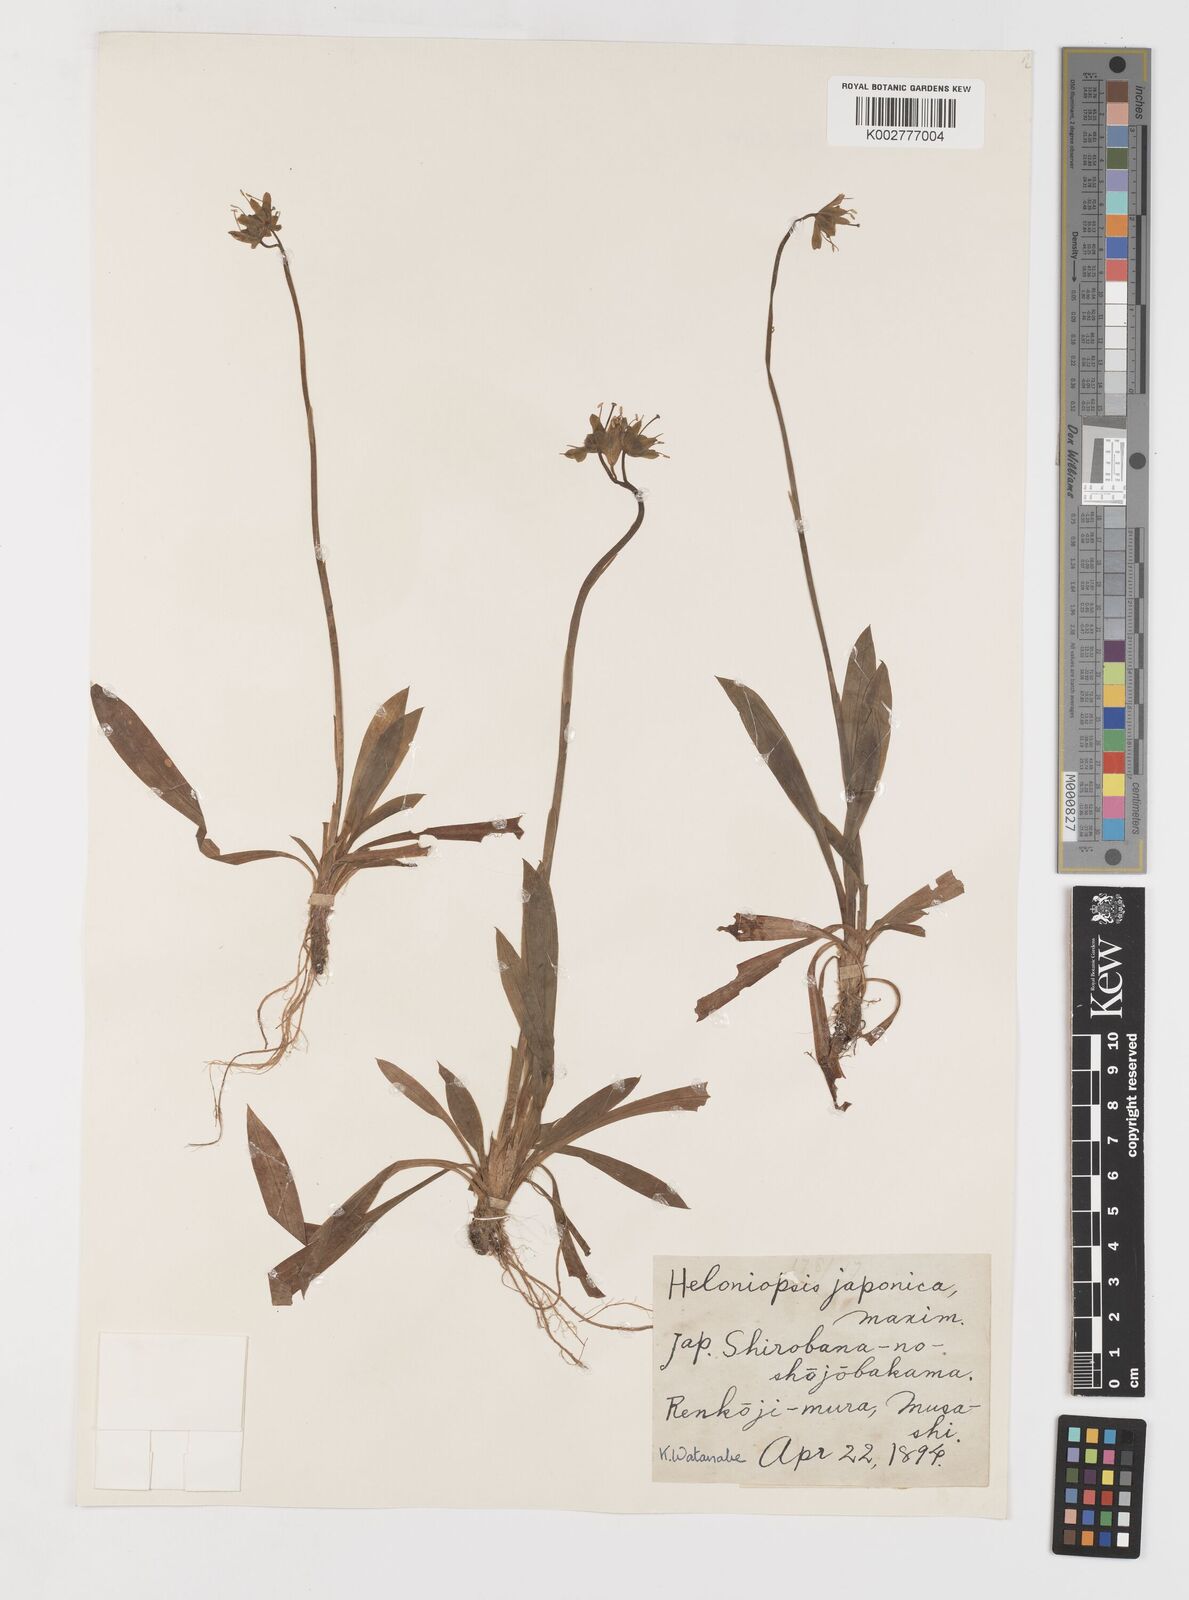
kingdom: Plantae
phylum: Tracheophyta
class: Liliopsida
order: Liliales
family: Melanthiaceae
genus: Helonias
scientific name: Helonias
